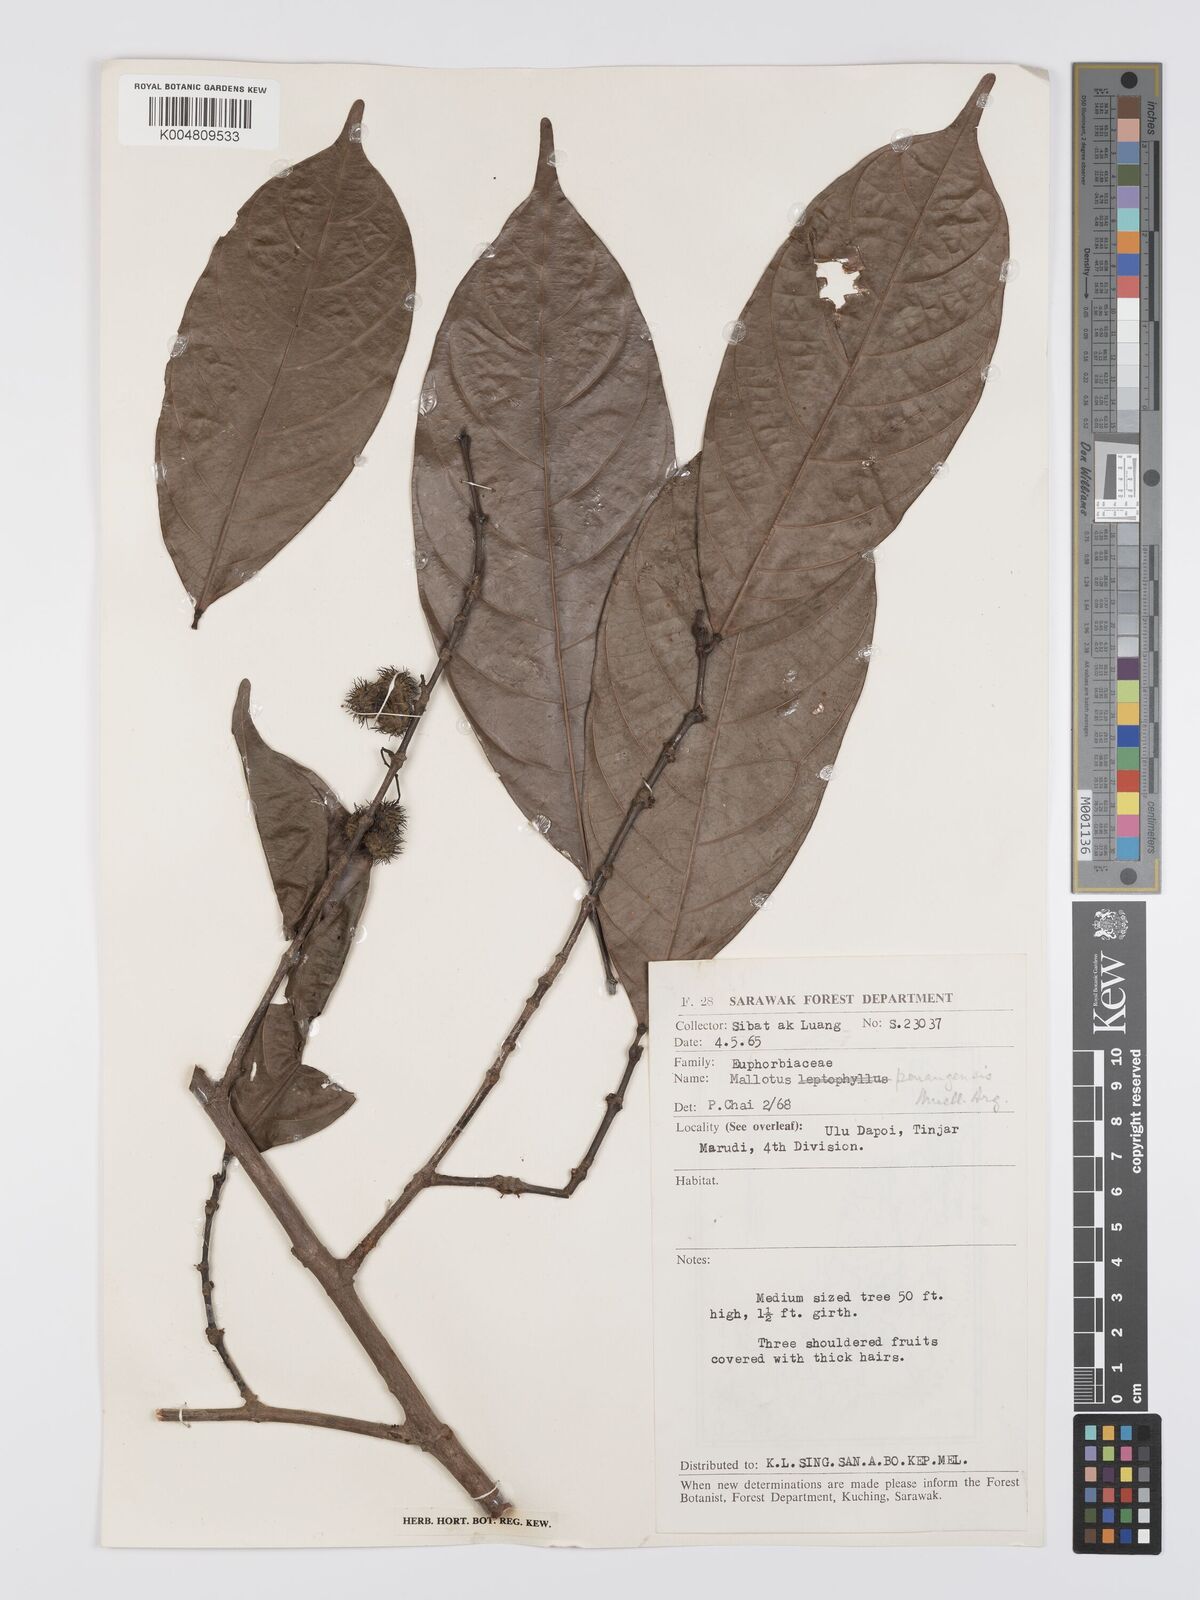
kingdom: Plantae
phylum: Tracheophyta
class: Magnoliopsida
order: Malpighiales
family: Euphorbiaceae
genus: Hancea
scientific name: Hancea penangensis
